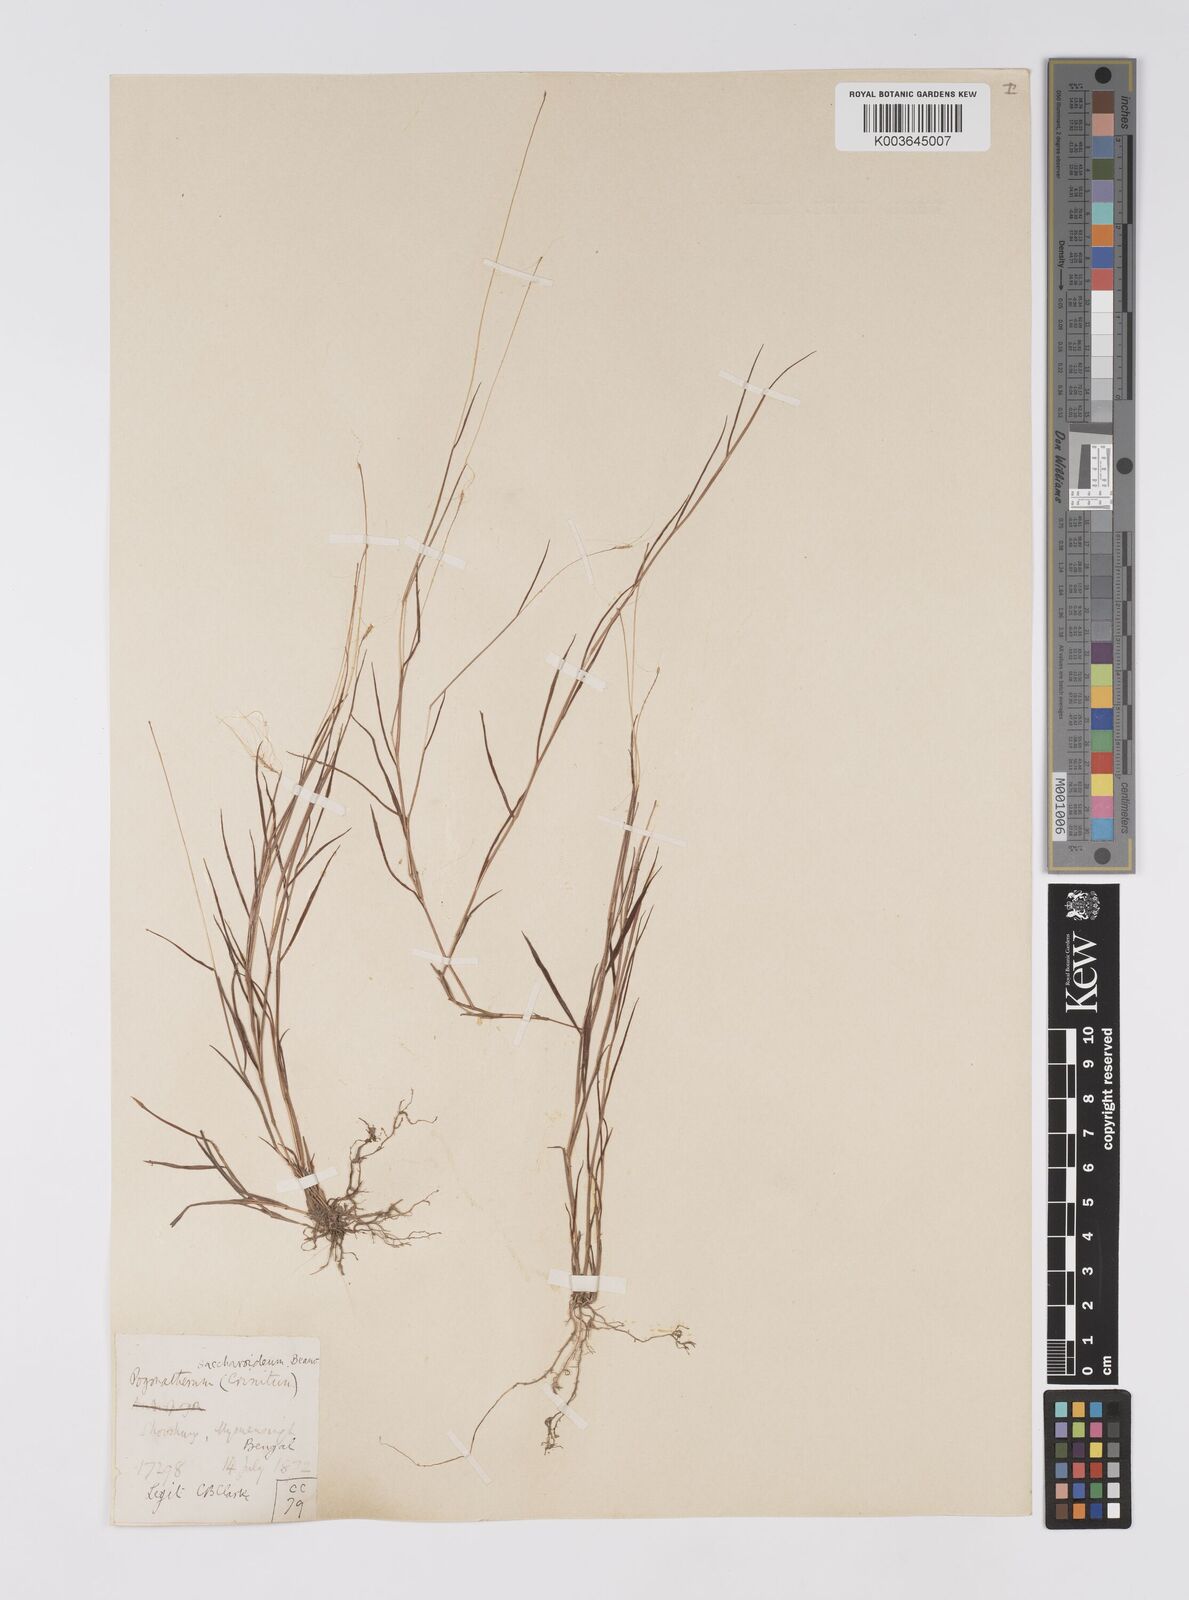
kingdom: Plantae
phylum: Tracheophyta
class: Liliopsida
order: Poales
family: Poaceae
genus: Pogonatherum
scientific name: Pogonatherum crinitum
